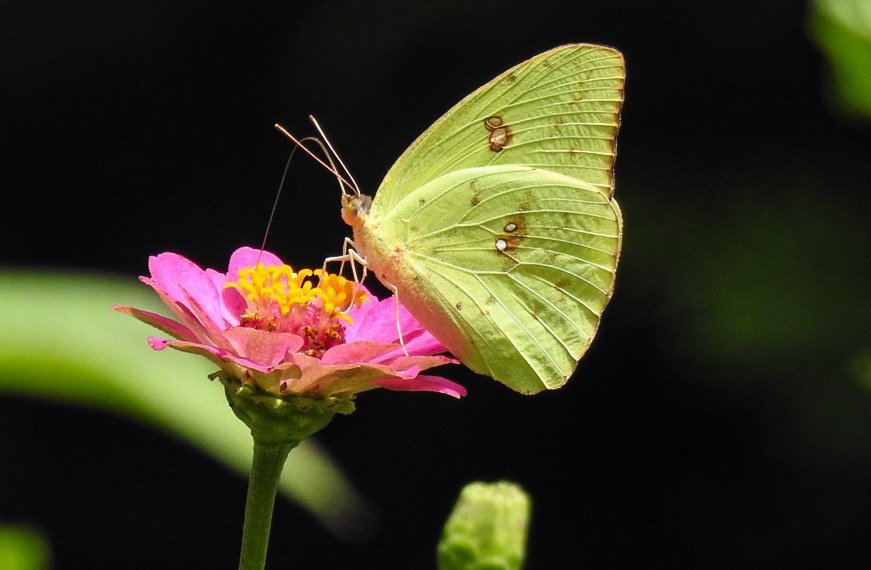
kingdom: Animalia
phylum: Arthropoda
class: Insecta
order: Lepidoptera
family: Pieridae
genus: Phoebis
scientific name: Phoebis sennae
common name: Cloudless Sulphur
